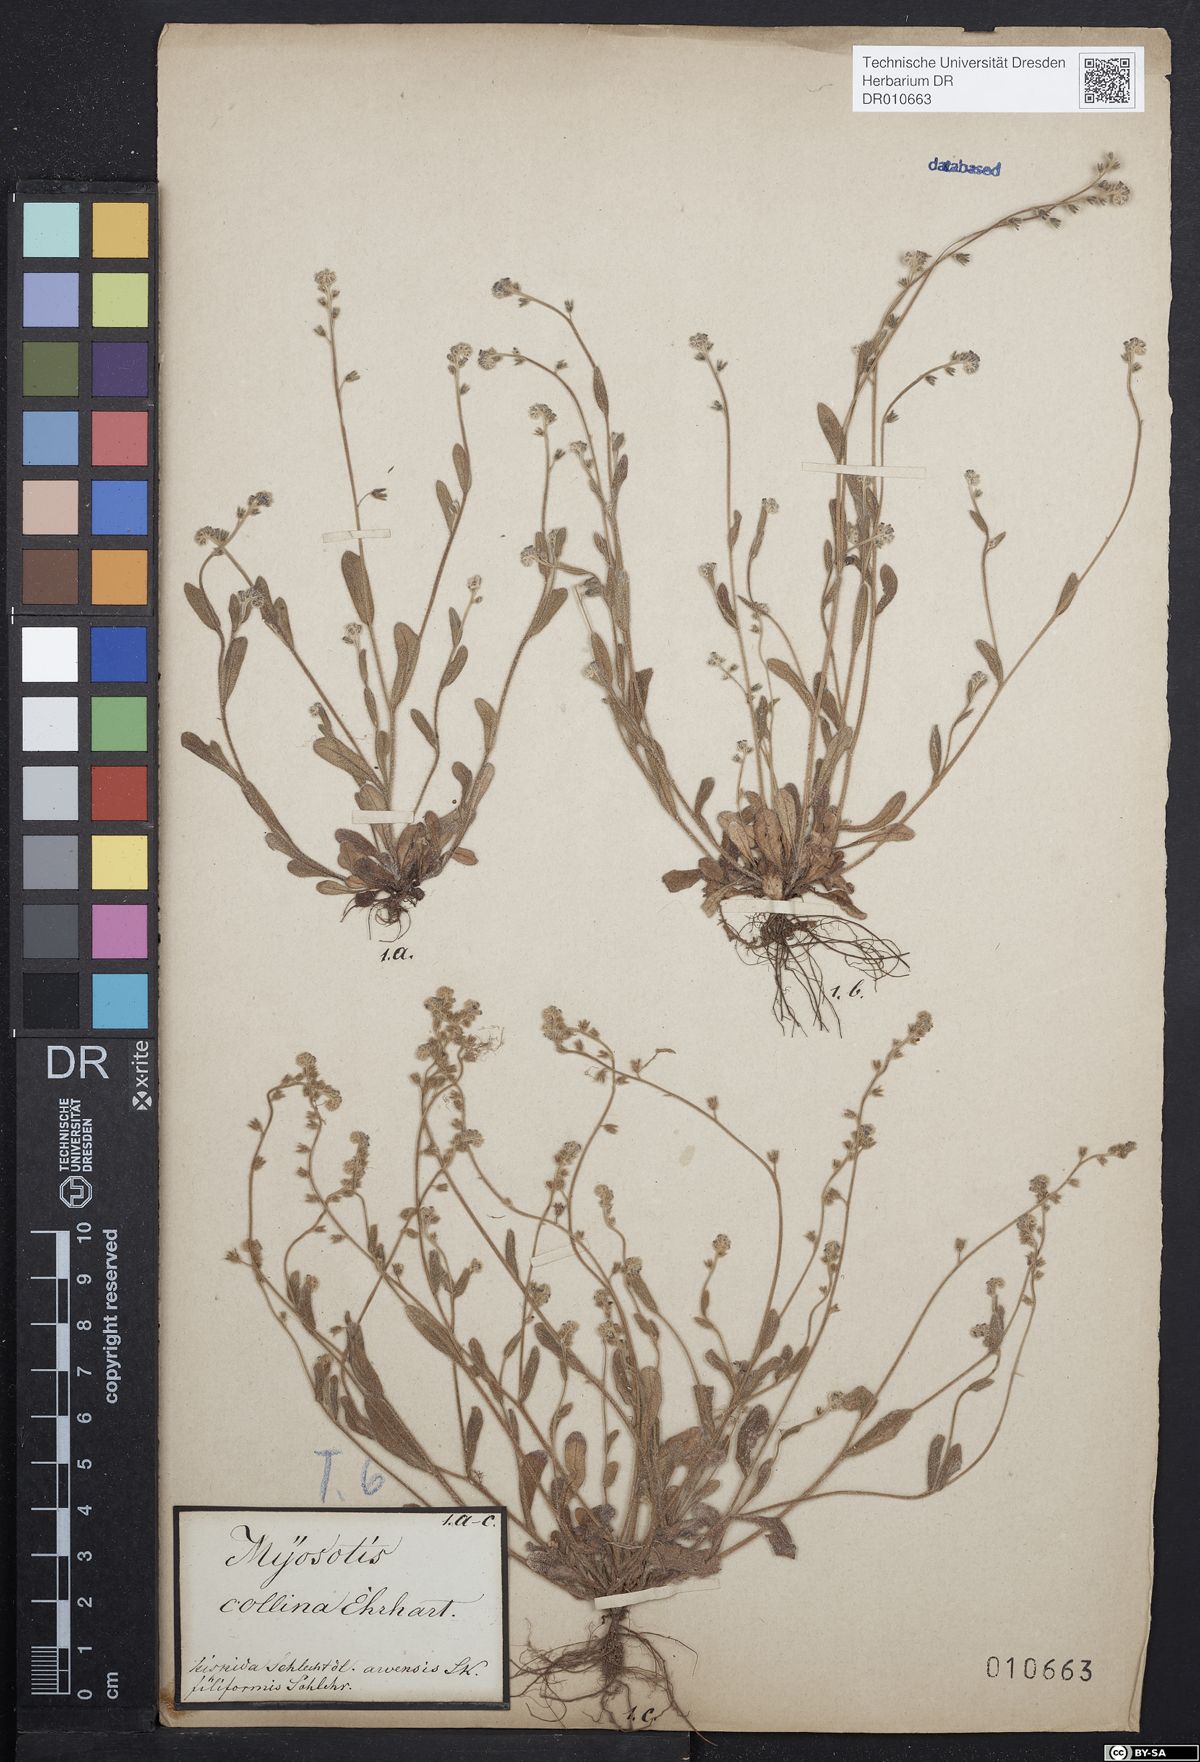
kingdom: Plantae
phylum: Tracheophyta
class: Magnoliopsida
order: Boraginales
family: Boraginaceae
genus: Myosotis
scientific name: Myosotis ramosissima
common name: Early forget-me-not
